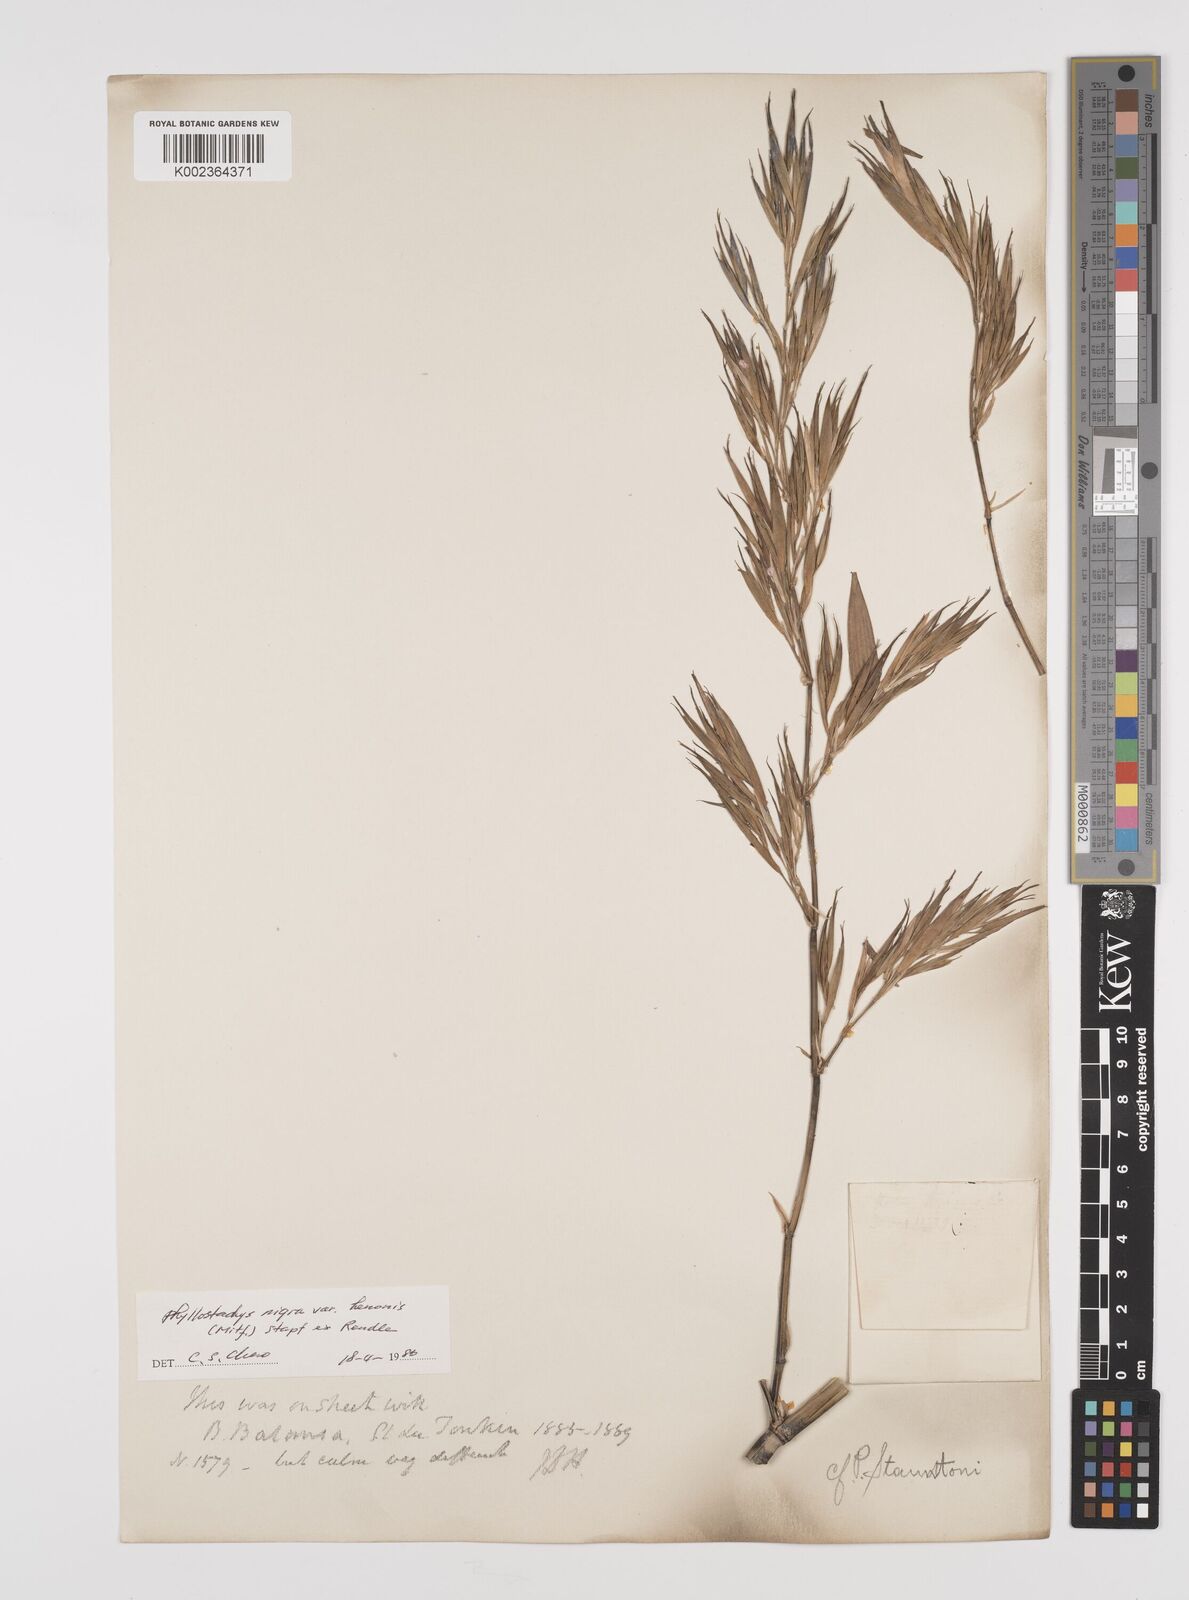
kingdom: Plantae
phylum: Tracheophyta
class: Liliopsida
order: Poales
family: Poaceae
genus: Phyllostachys
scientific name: Phyllostachys reticulata
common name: Bamboo
